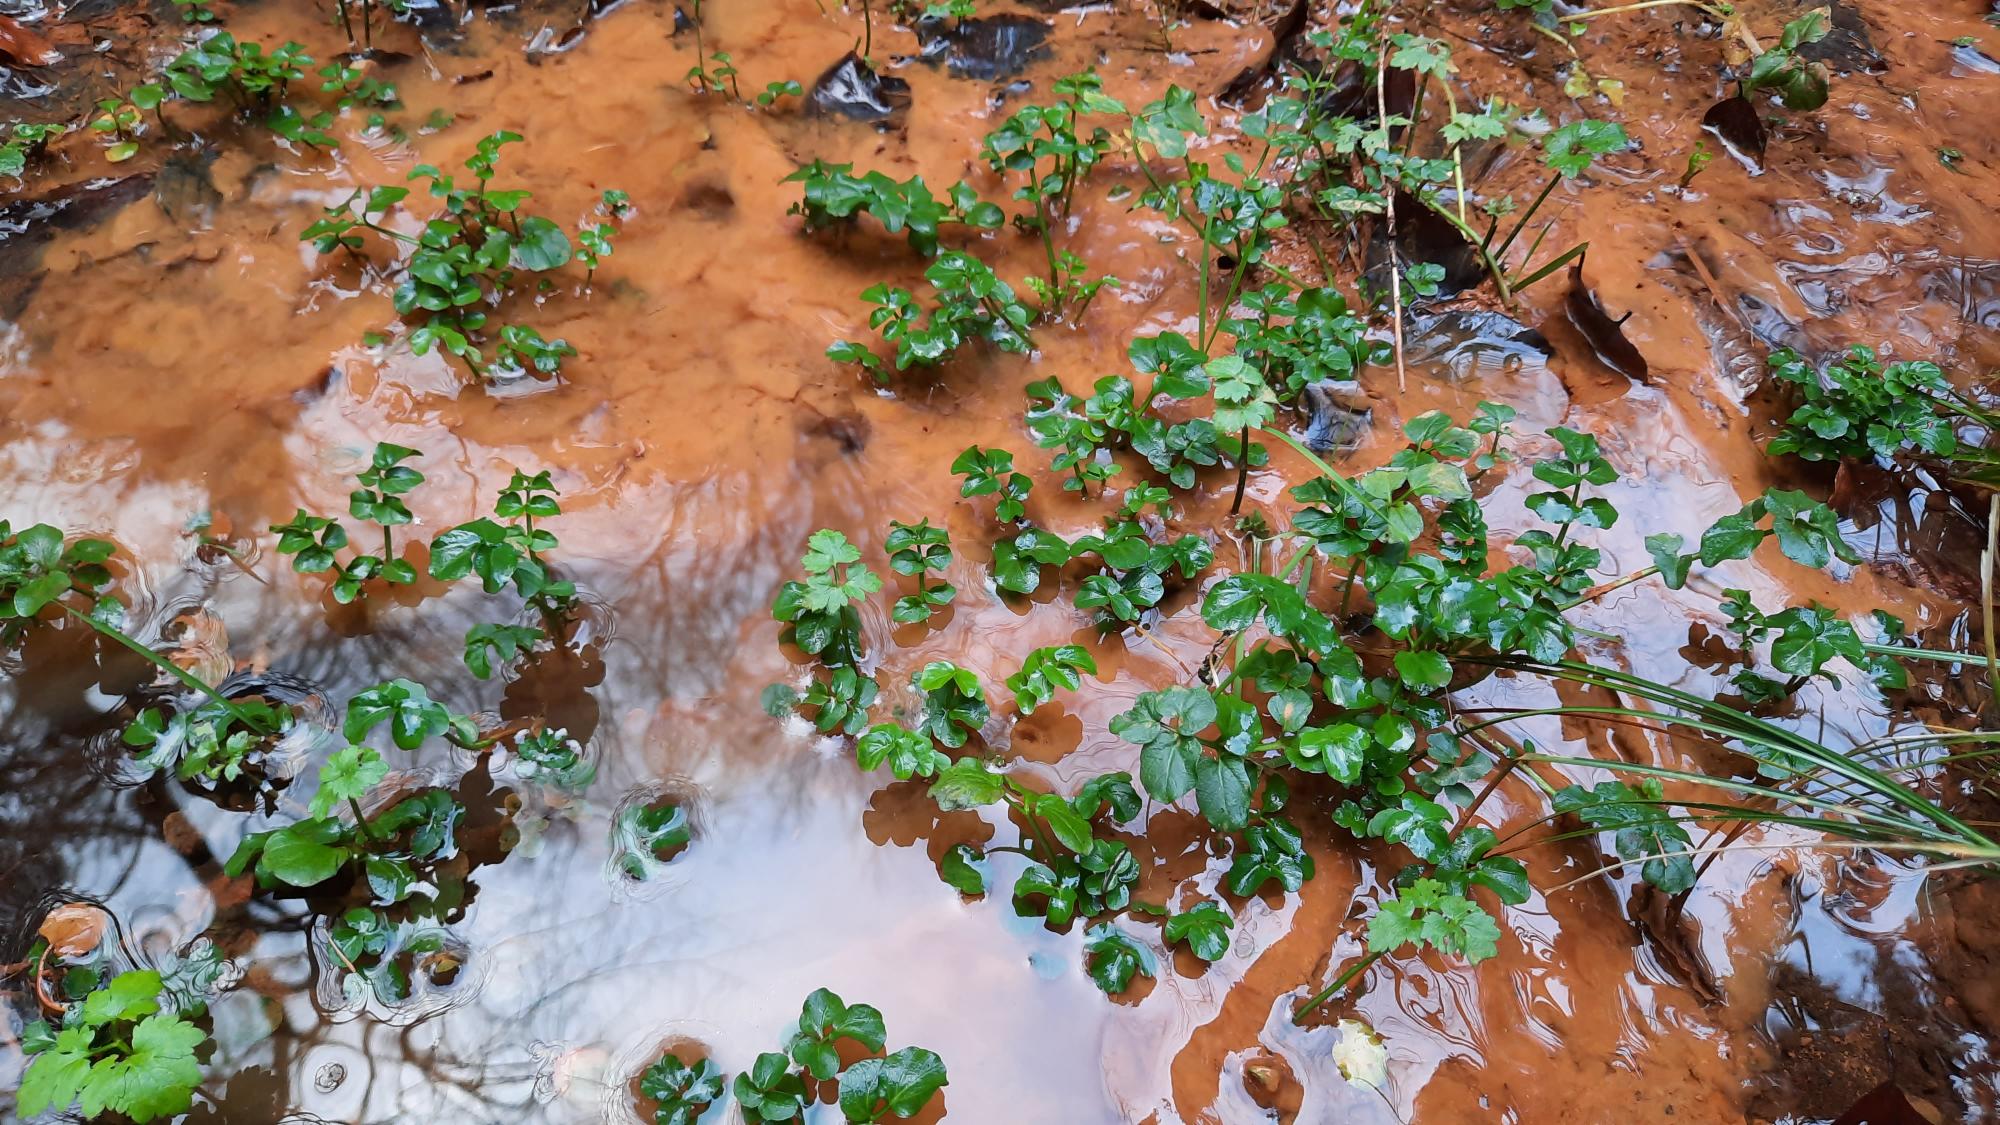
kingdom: Plantae
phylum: Tracheophyta
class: Magnoliopsida
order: Brassicales
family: Brassicaceae
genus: Cardamine
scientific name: Cardamine amara
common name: Vandkarse
